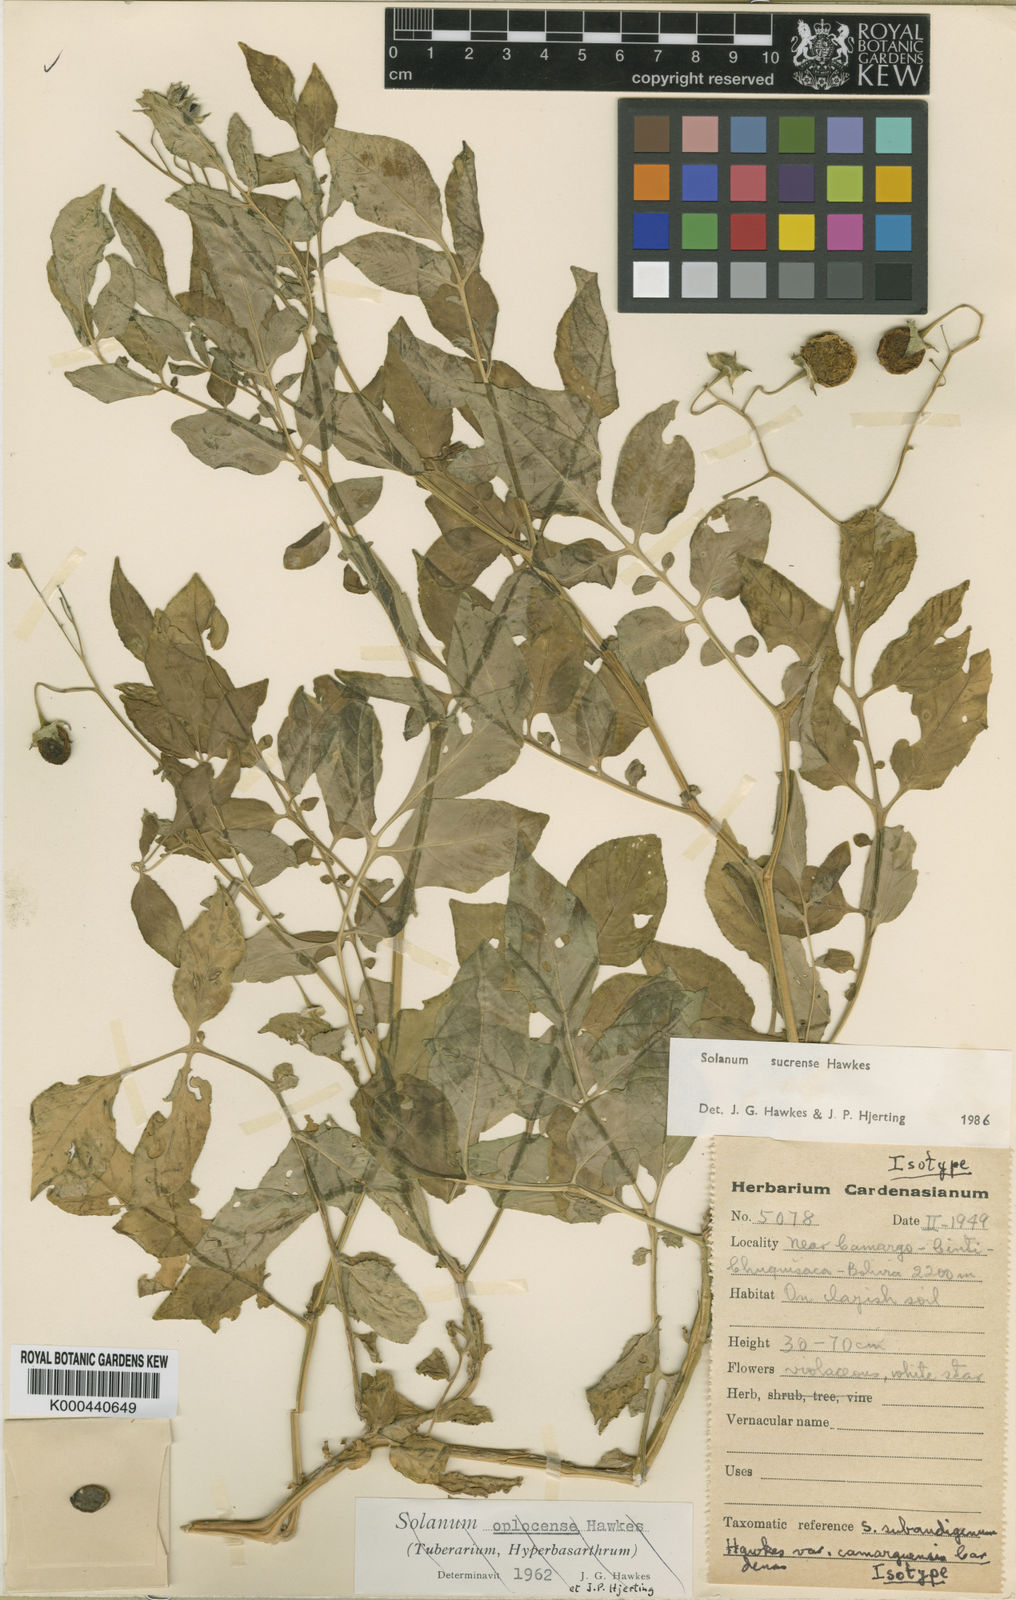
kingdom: Plantae
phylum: Tracheophyta
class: Magnoliopsida
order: Solanales
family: Solanaceae
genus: Solanum
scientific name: Solanum brevicaule
